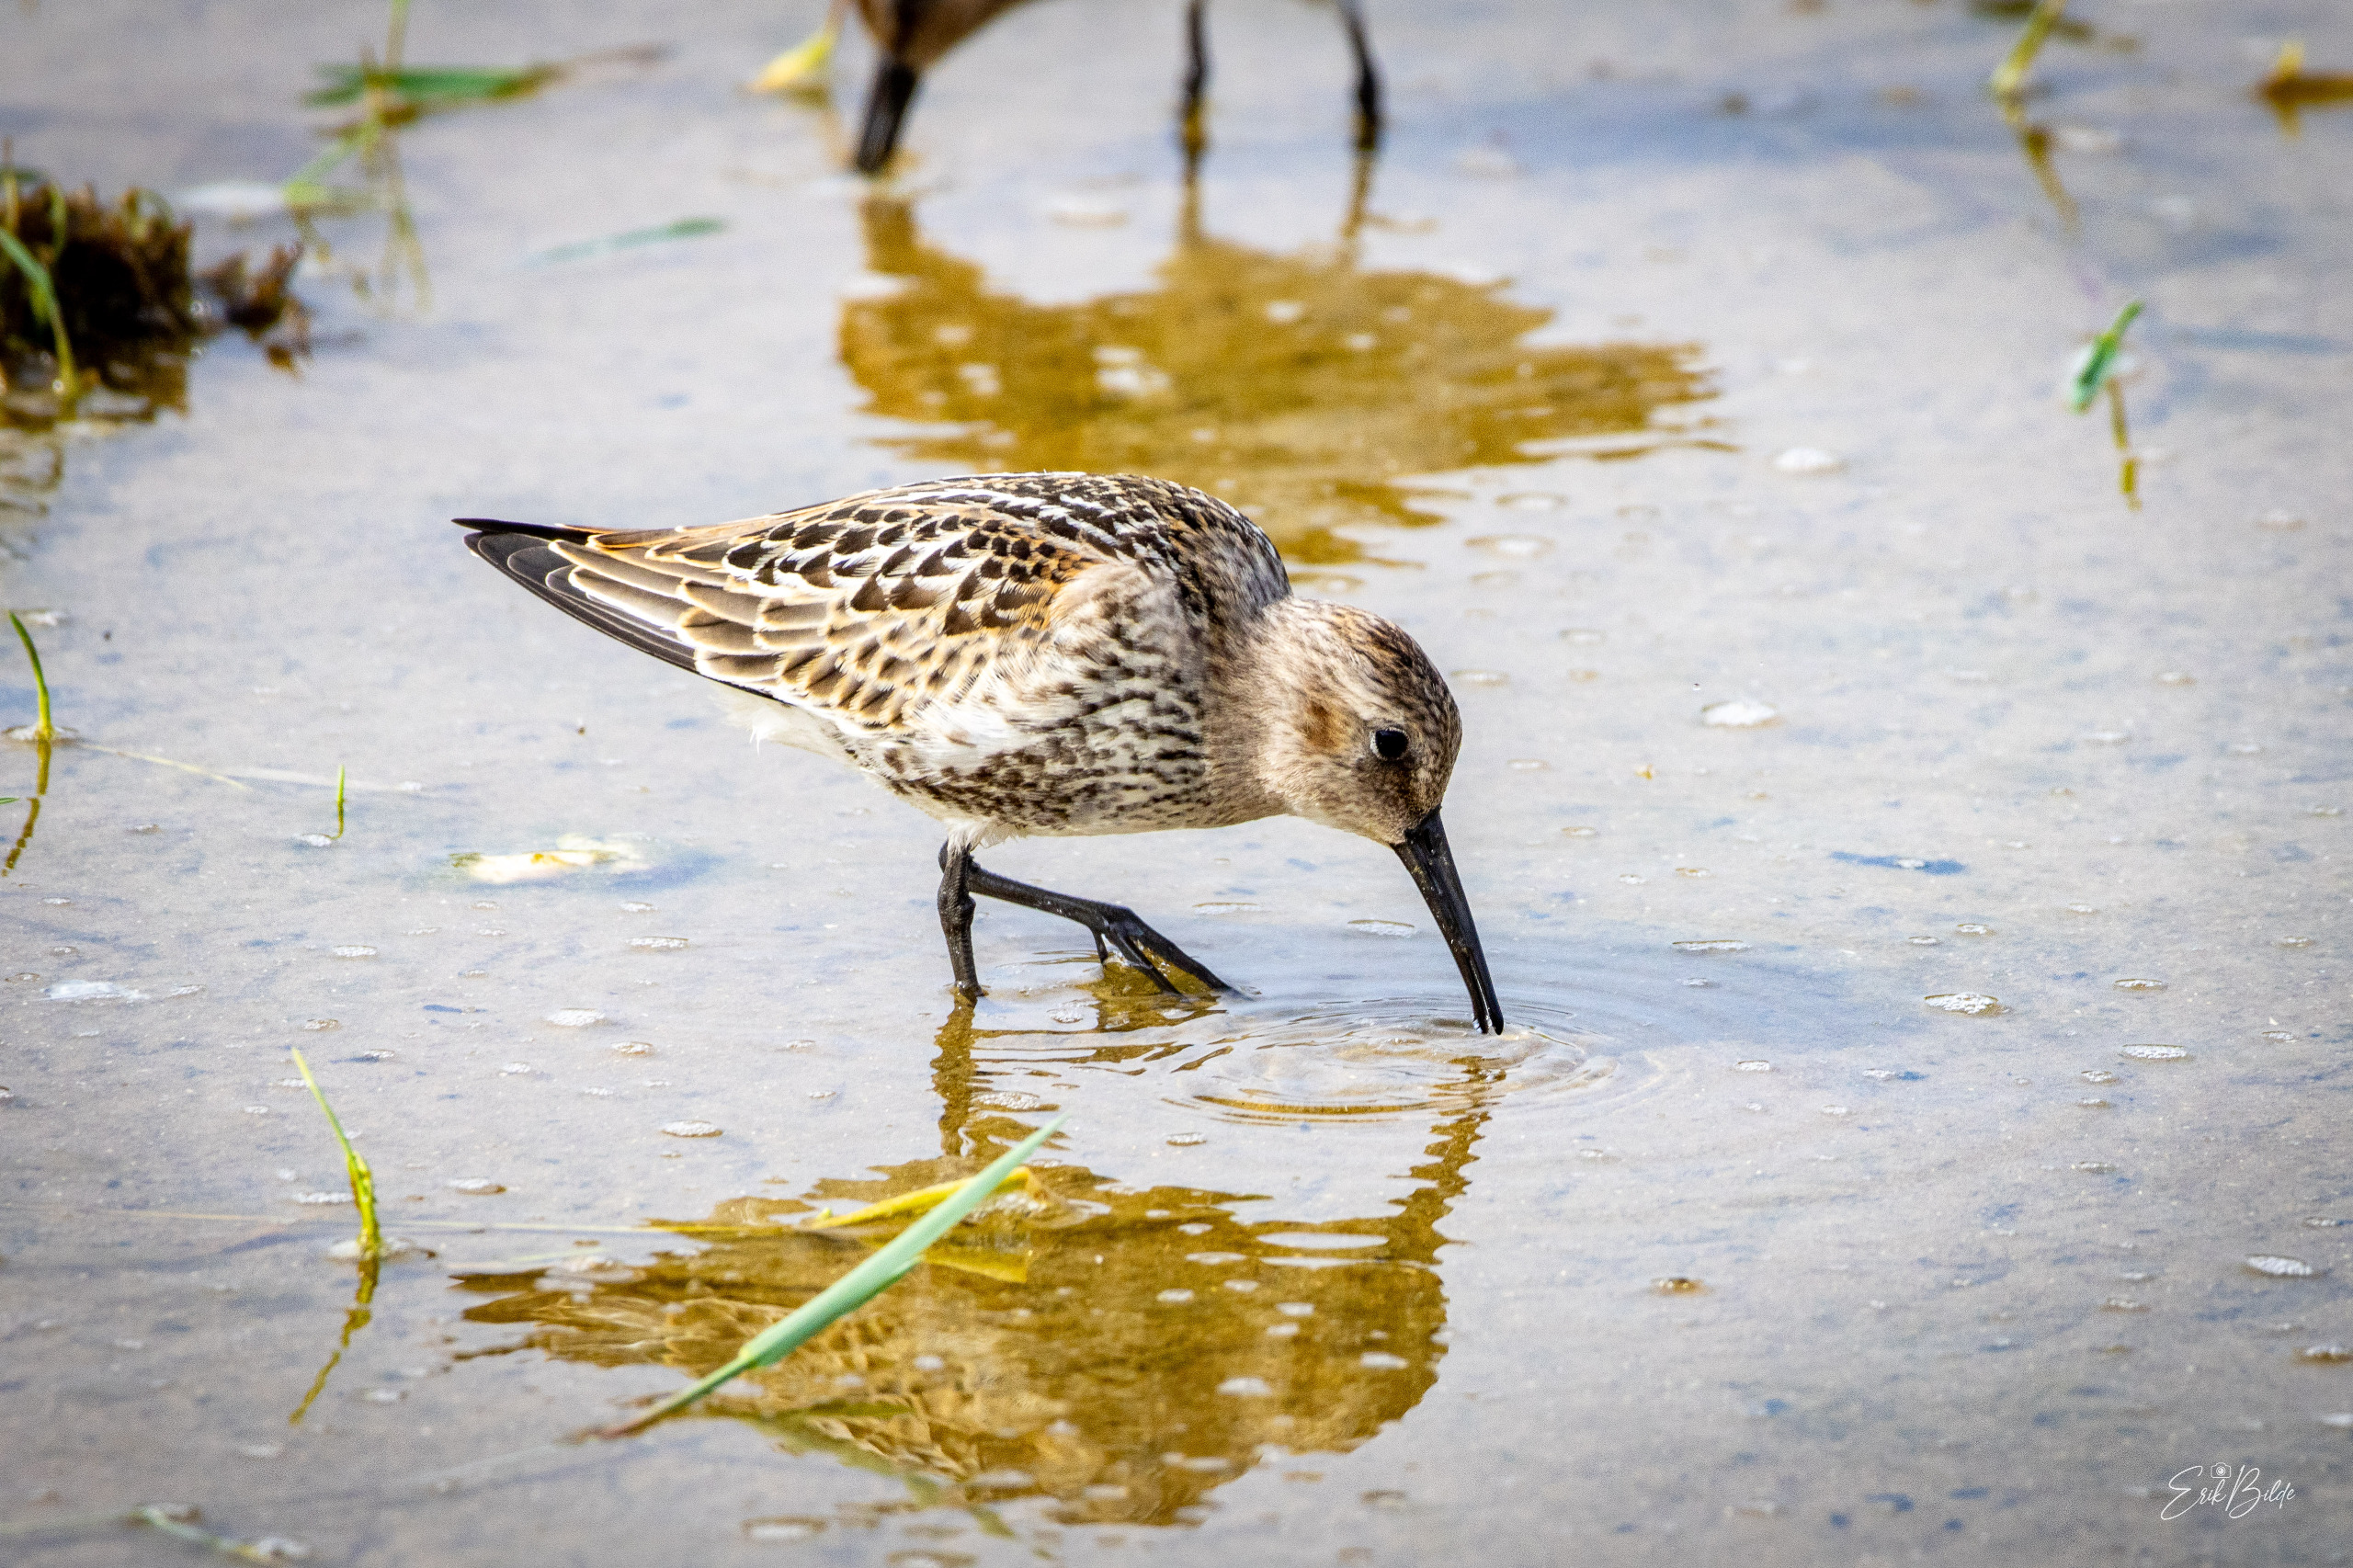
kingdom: Animalia
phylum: Chordata
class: Aves
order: Charadriiformes
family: Scolopacidae
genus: Calidris
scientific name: Calidris alpina
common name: Almindelig ryle
